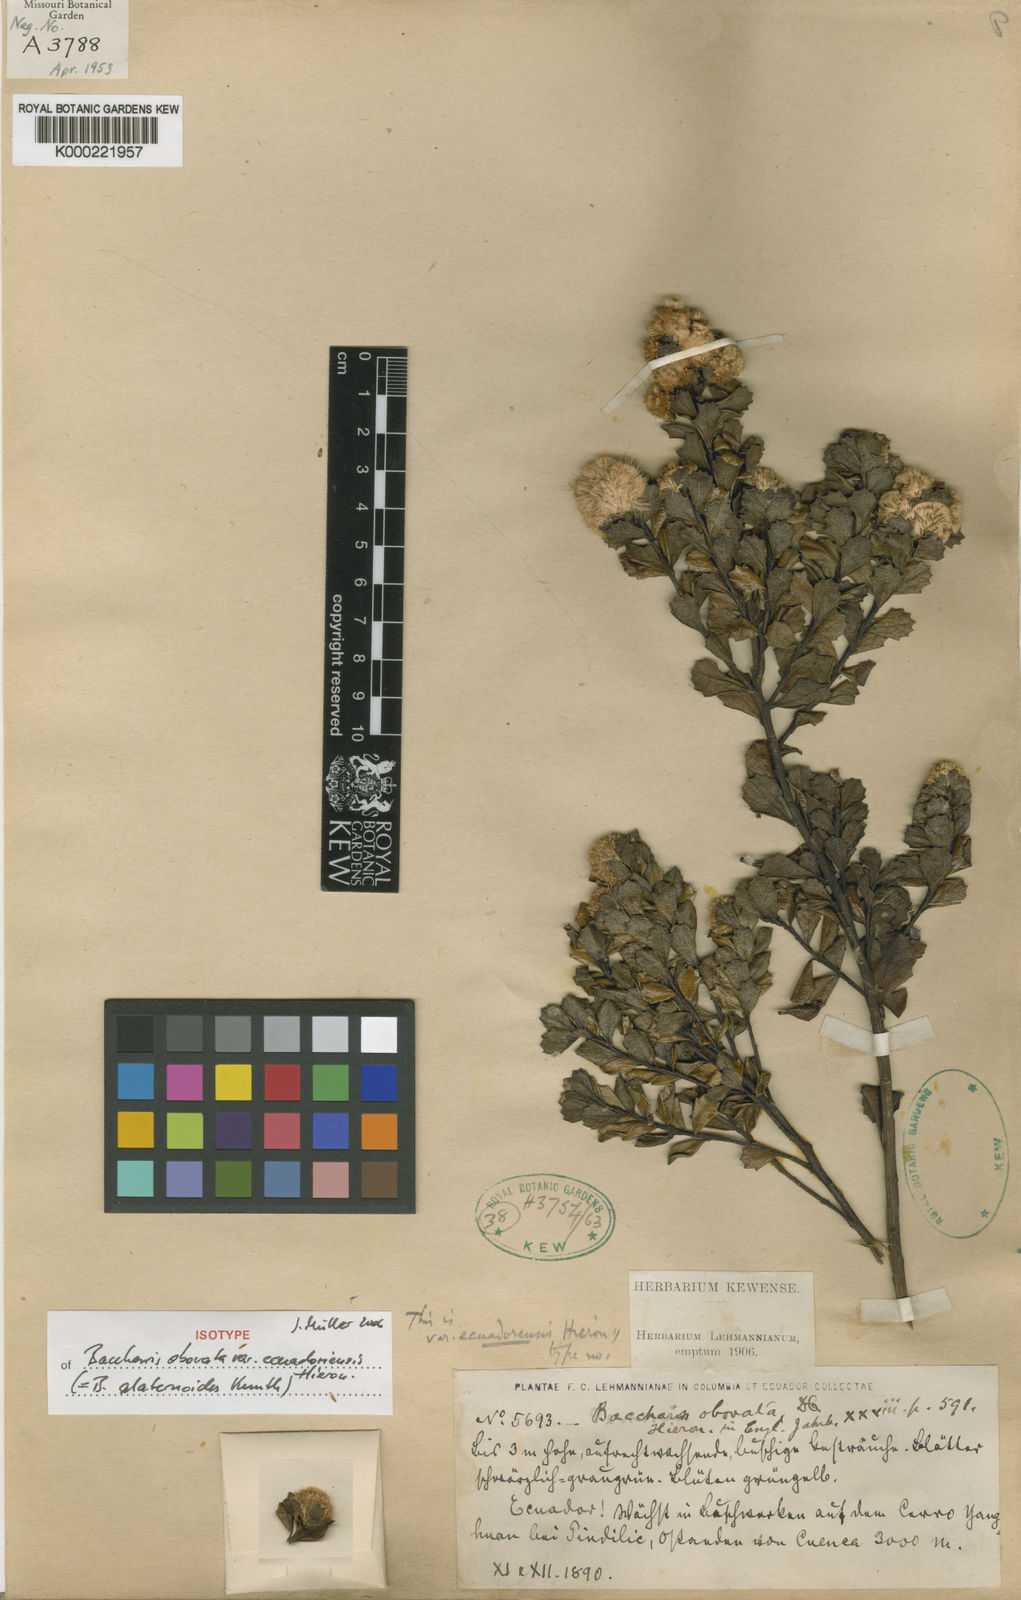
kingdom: Plantae
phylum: Tracheophyta
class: Magnoliopsida
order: Asterales
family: Asteraceae
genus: Baccharis
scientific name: Baccharis buxifolia
